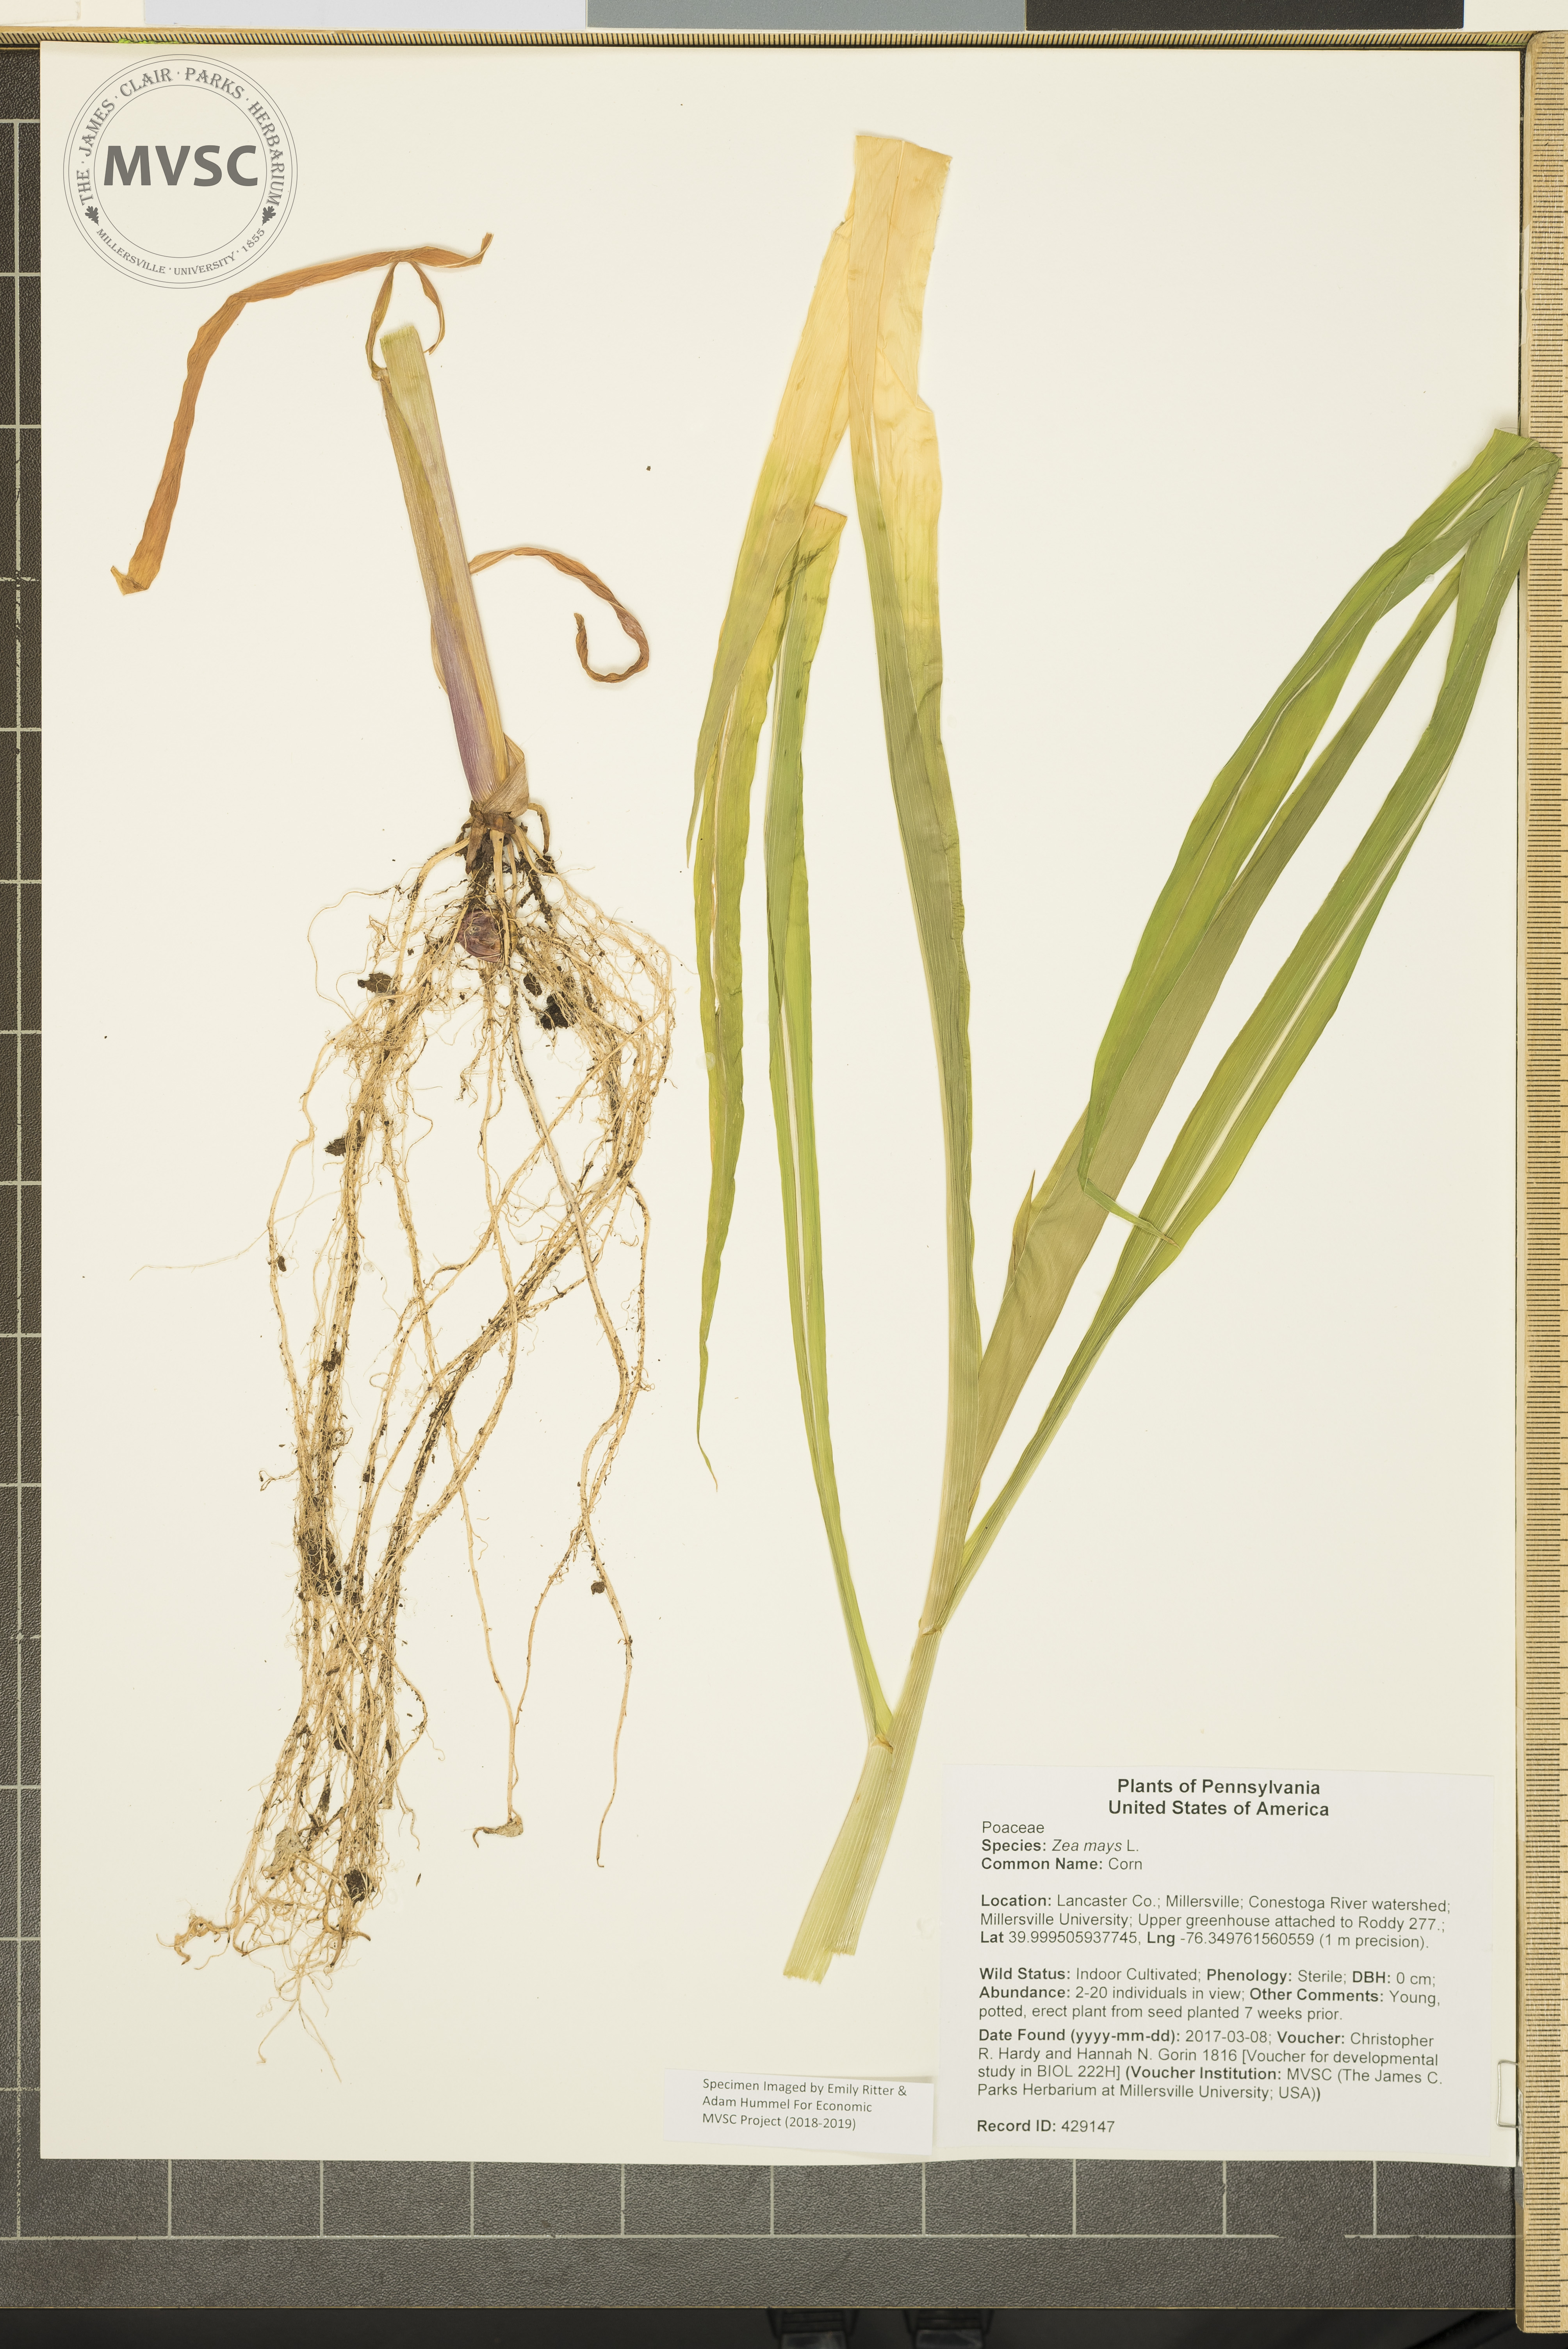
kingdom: Plantae
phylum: Tracheophyta
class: Liliopsida
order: Poales
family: Poaceae
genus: Zea
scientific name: Zea mays
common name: Corn
